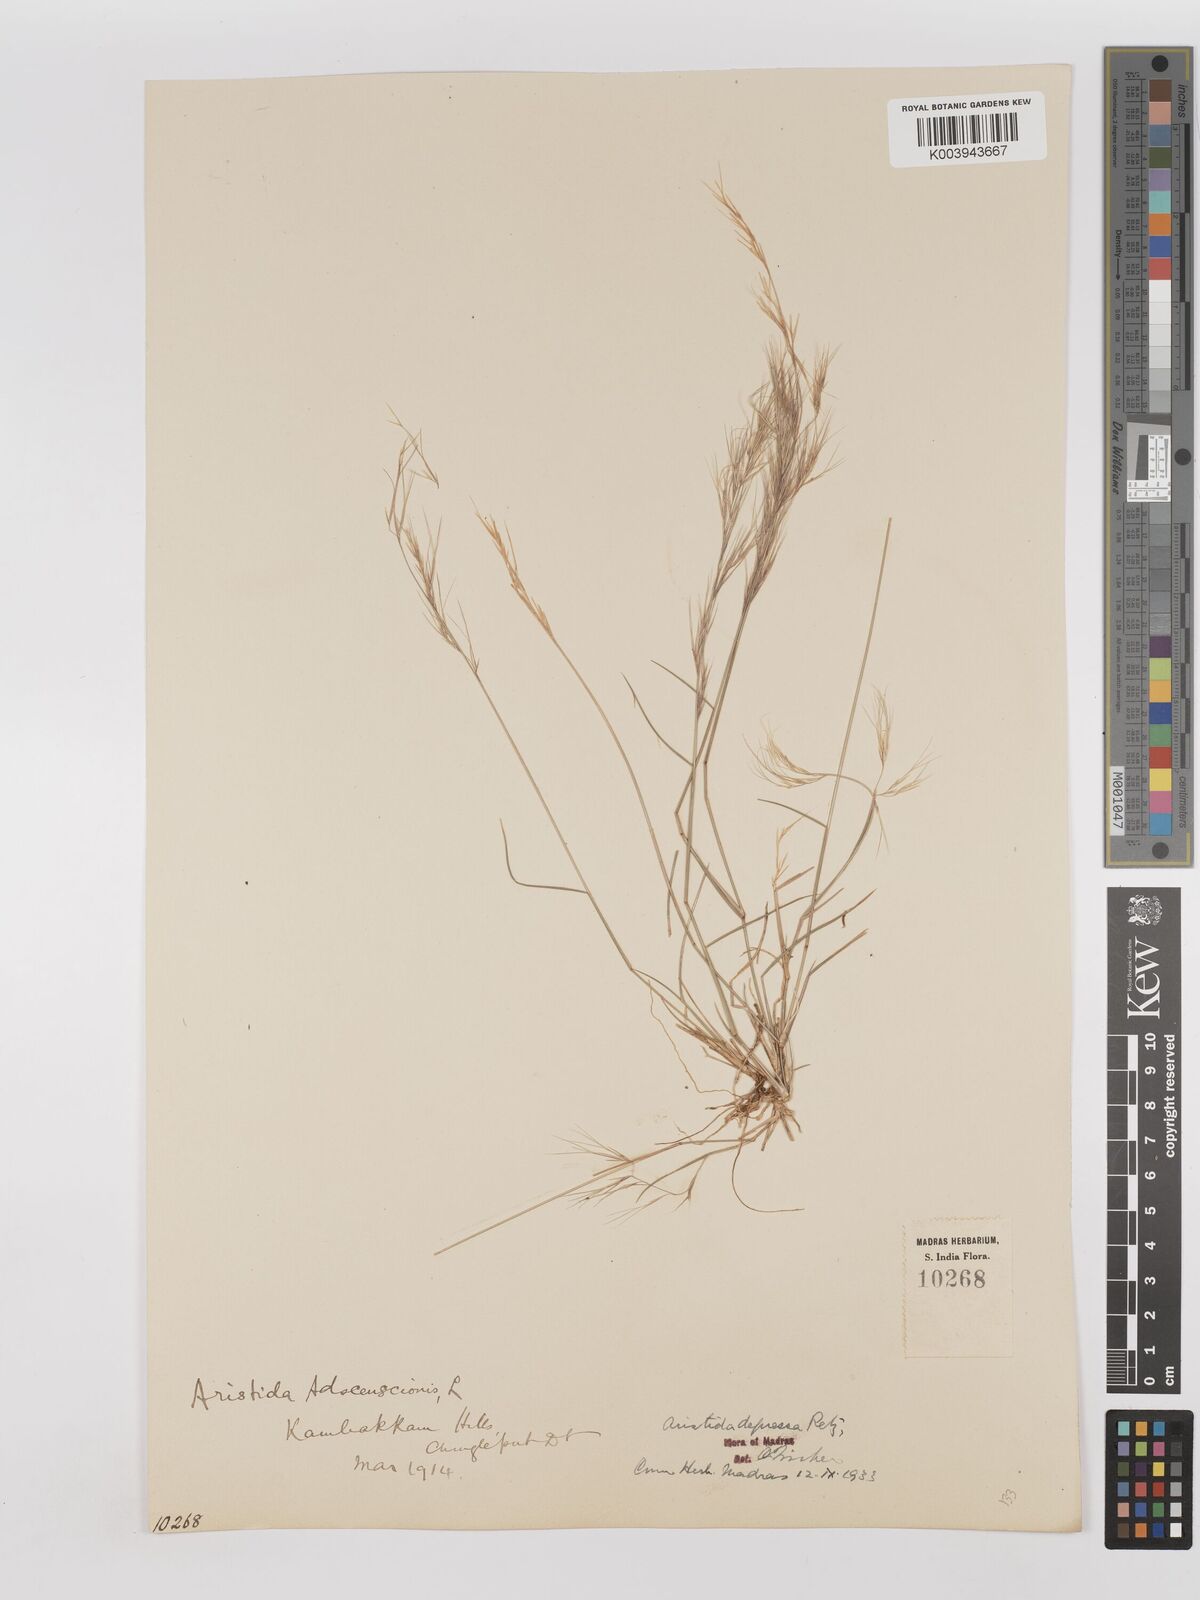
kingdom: Plantae
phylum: Tracheophyta
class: Liliopsida
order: Poales
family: Poaceae
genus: Aristida
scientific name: Aristida adscensionis
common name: Sixweeks threeawn
